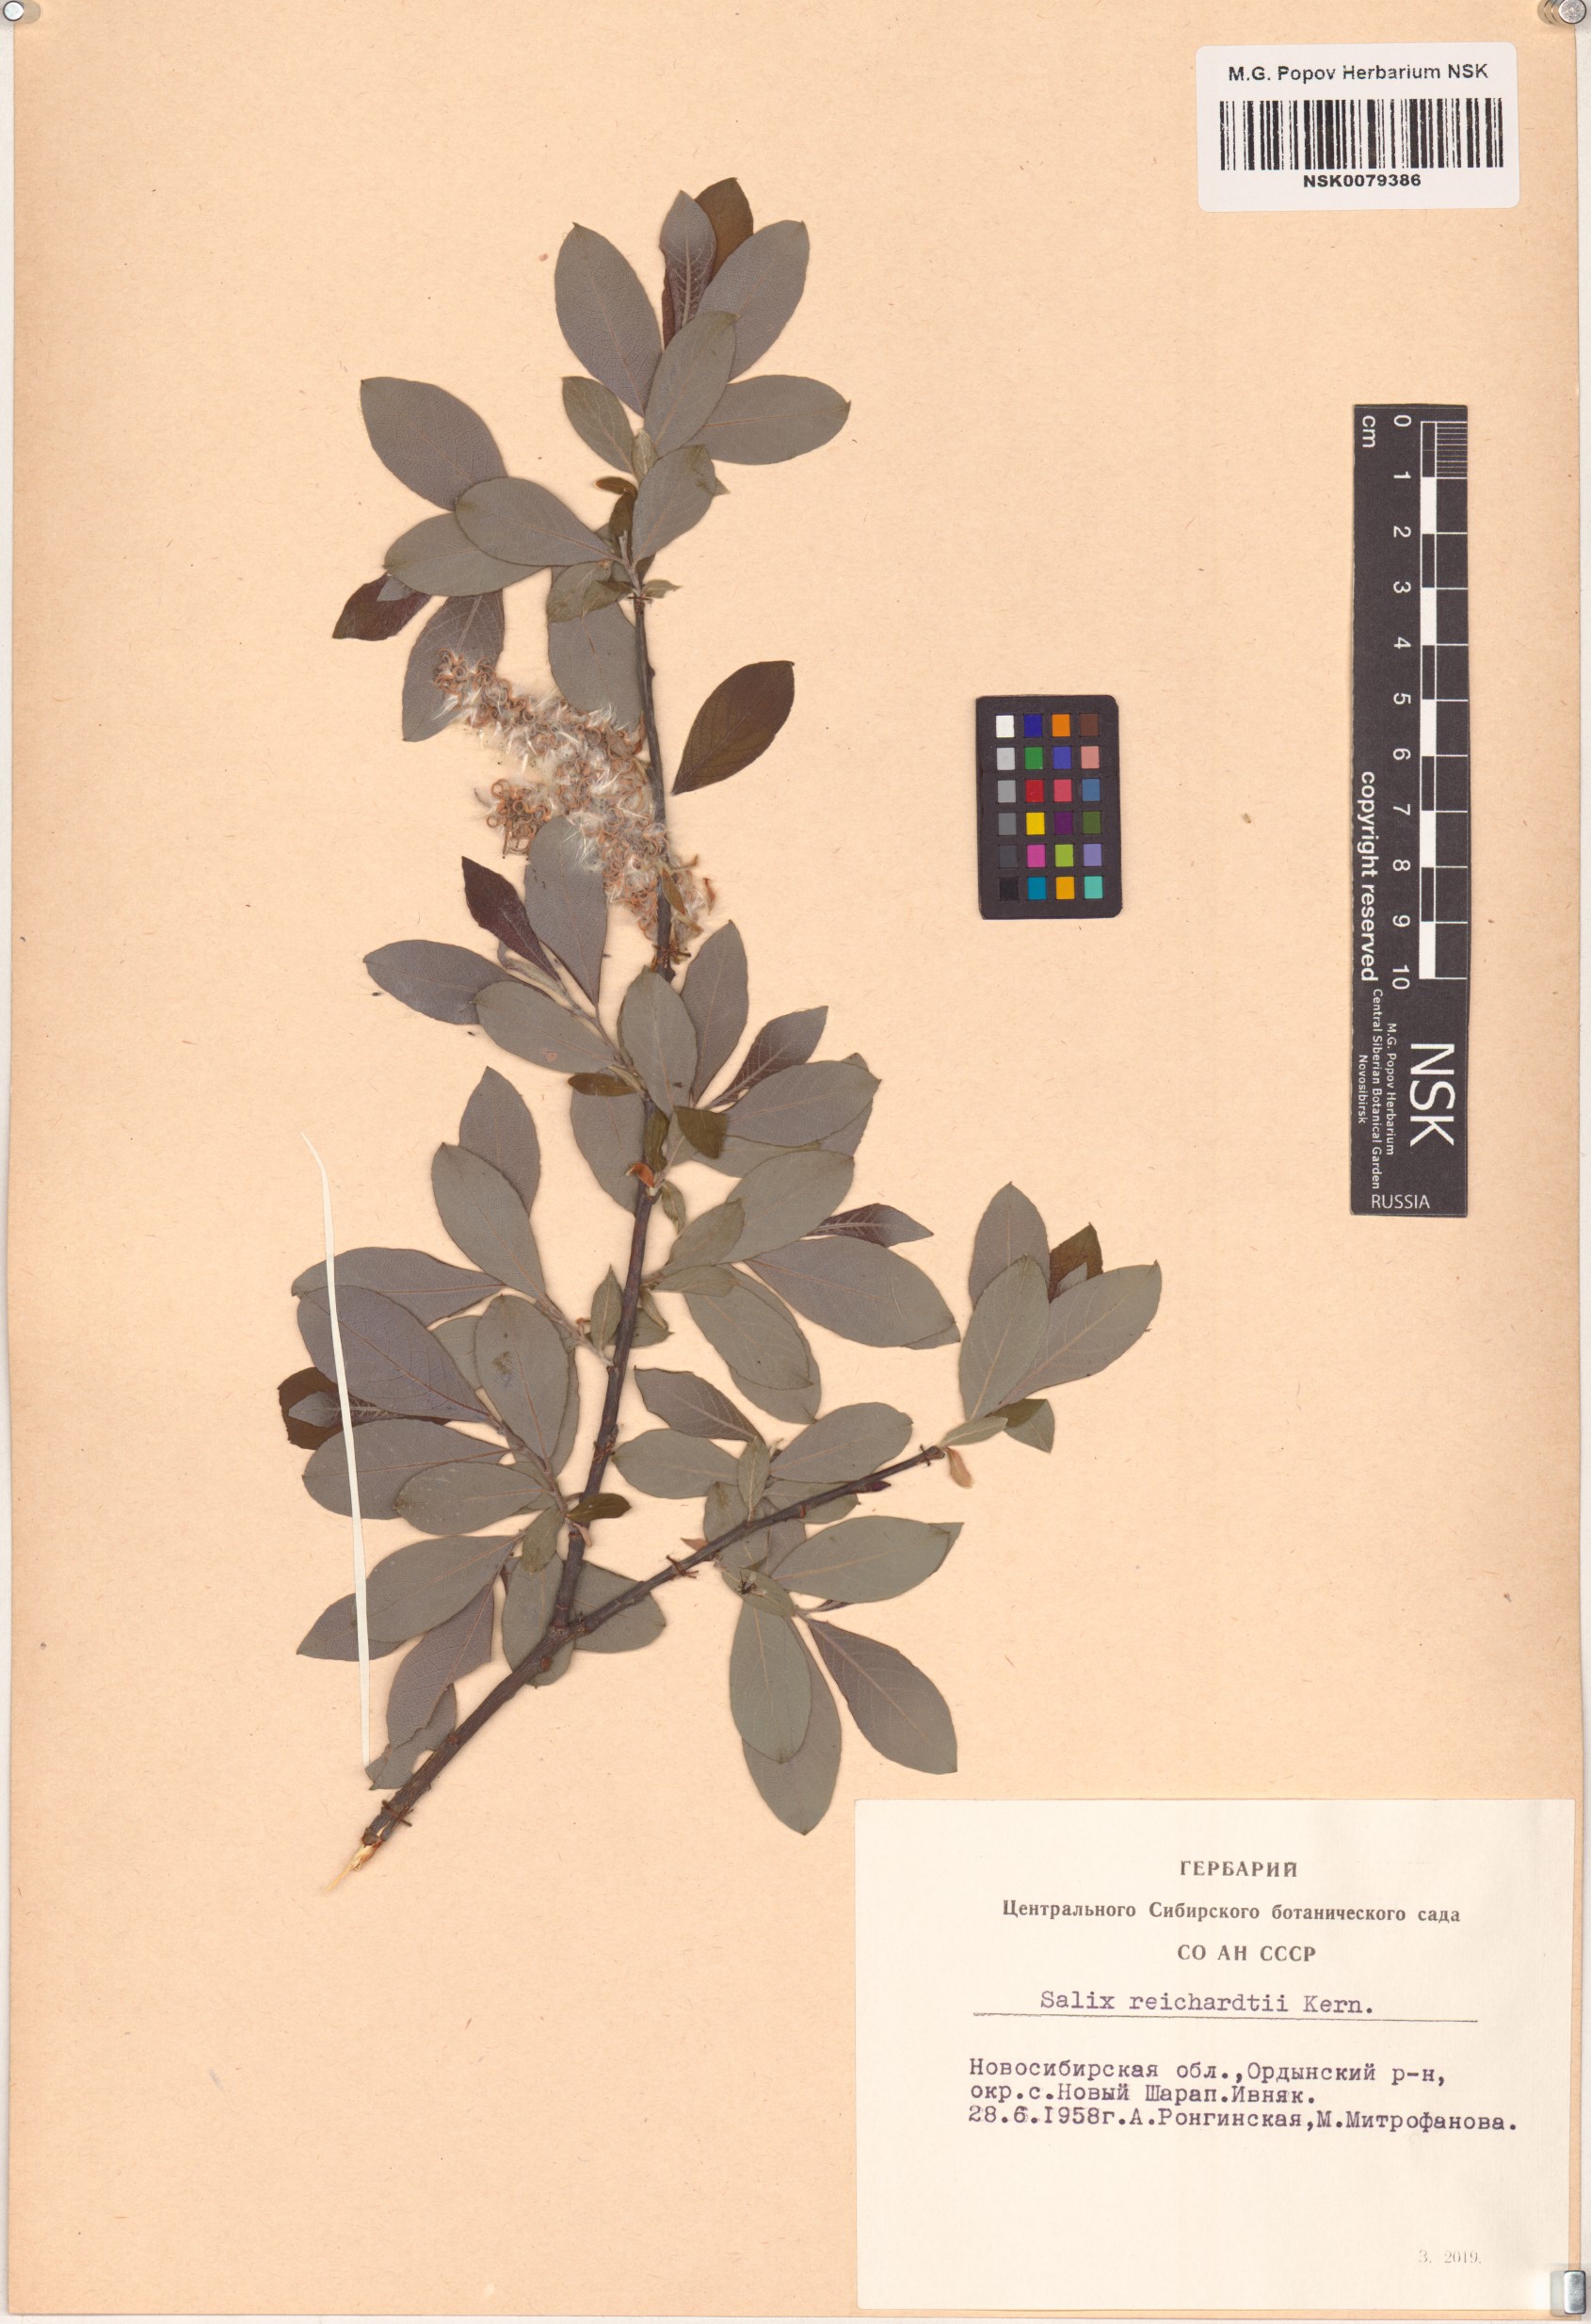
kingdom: Plantae
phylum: Tracheophyta
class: Magnoliopsida
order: Malpighiales
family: Salicaceae
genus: Salix
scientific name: Salix reichardtii
